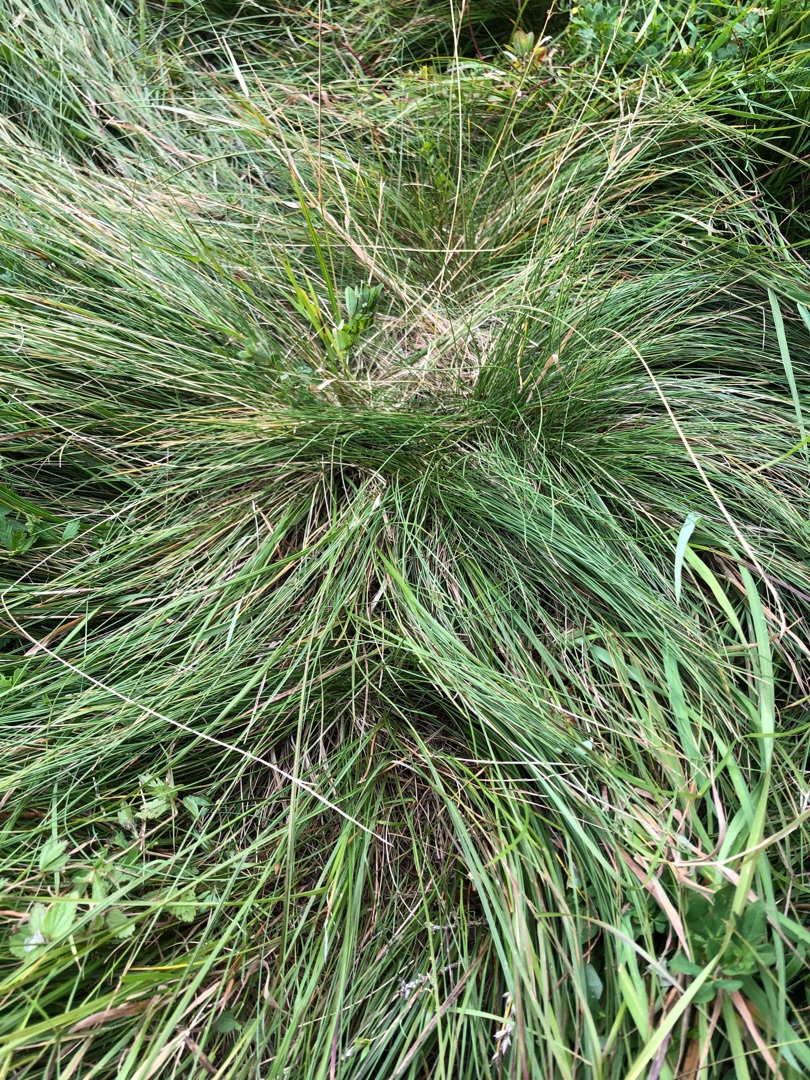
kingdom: Plantae
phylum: Tracheophyta
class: Liliopsida
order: Poales
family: Poaceae
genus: Nardus
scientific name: Nardus stricta
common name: Katteskæg
